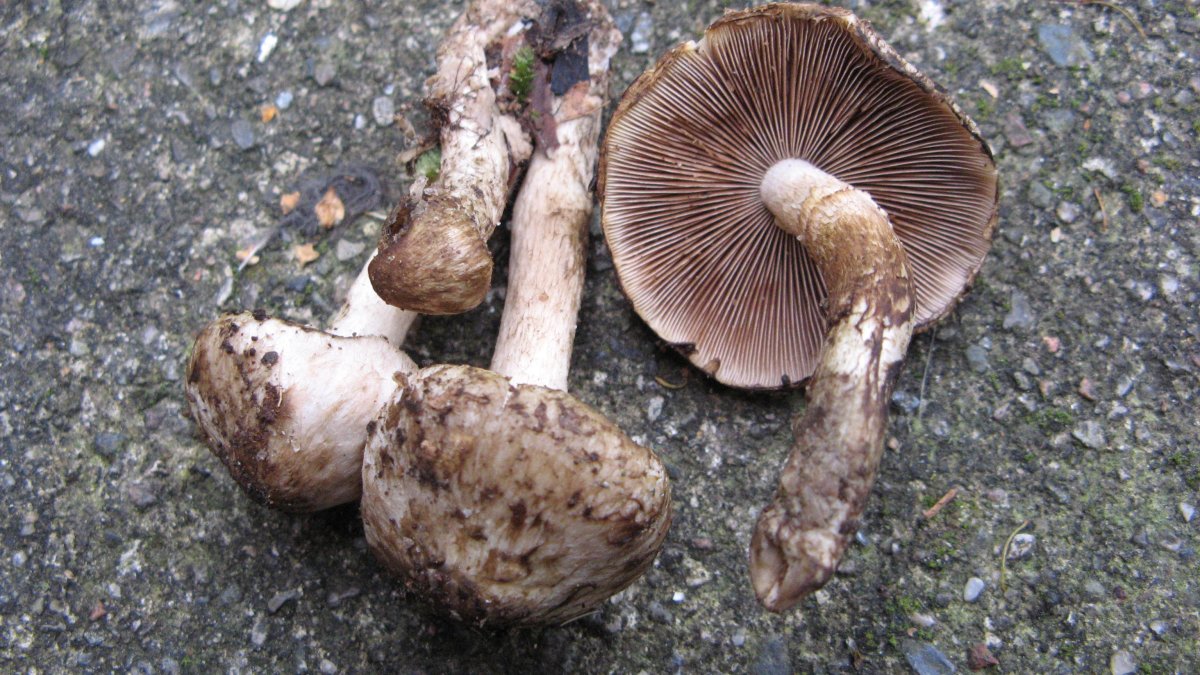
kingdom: Fungi
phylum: Basidiomycota
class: Agaricomycetes
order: Agaricales
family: Psathyrellaceae
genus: Psathyrella
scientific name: Psathyrella maculata
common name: sortskællet mørkhat
